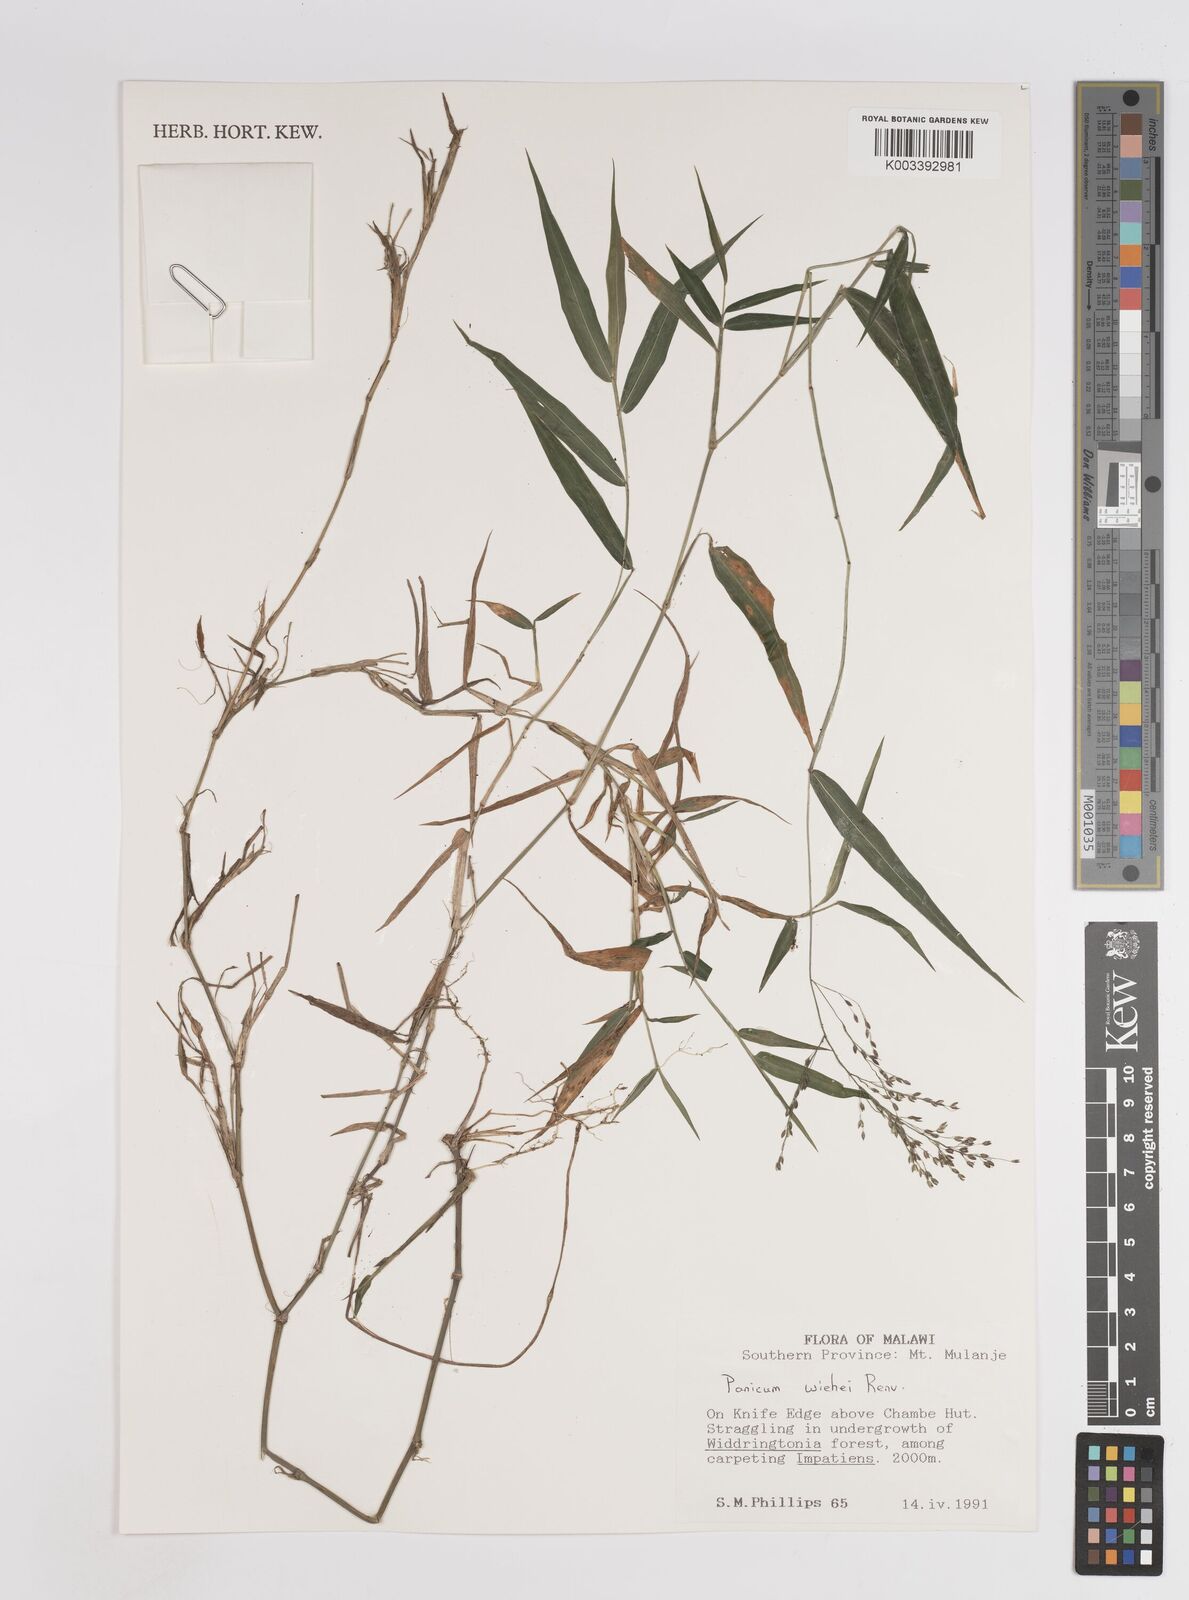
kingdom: Plantae
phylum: Tracheophyta
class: Liliopsida
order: Poales
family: Poaceae
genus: Panicum
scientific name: Panicum wiehei
